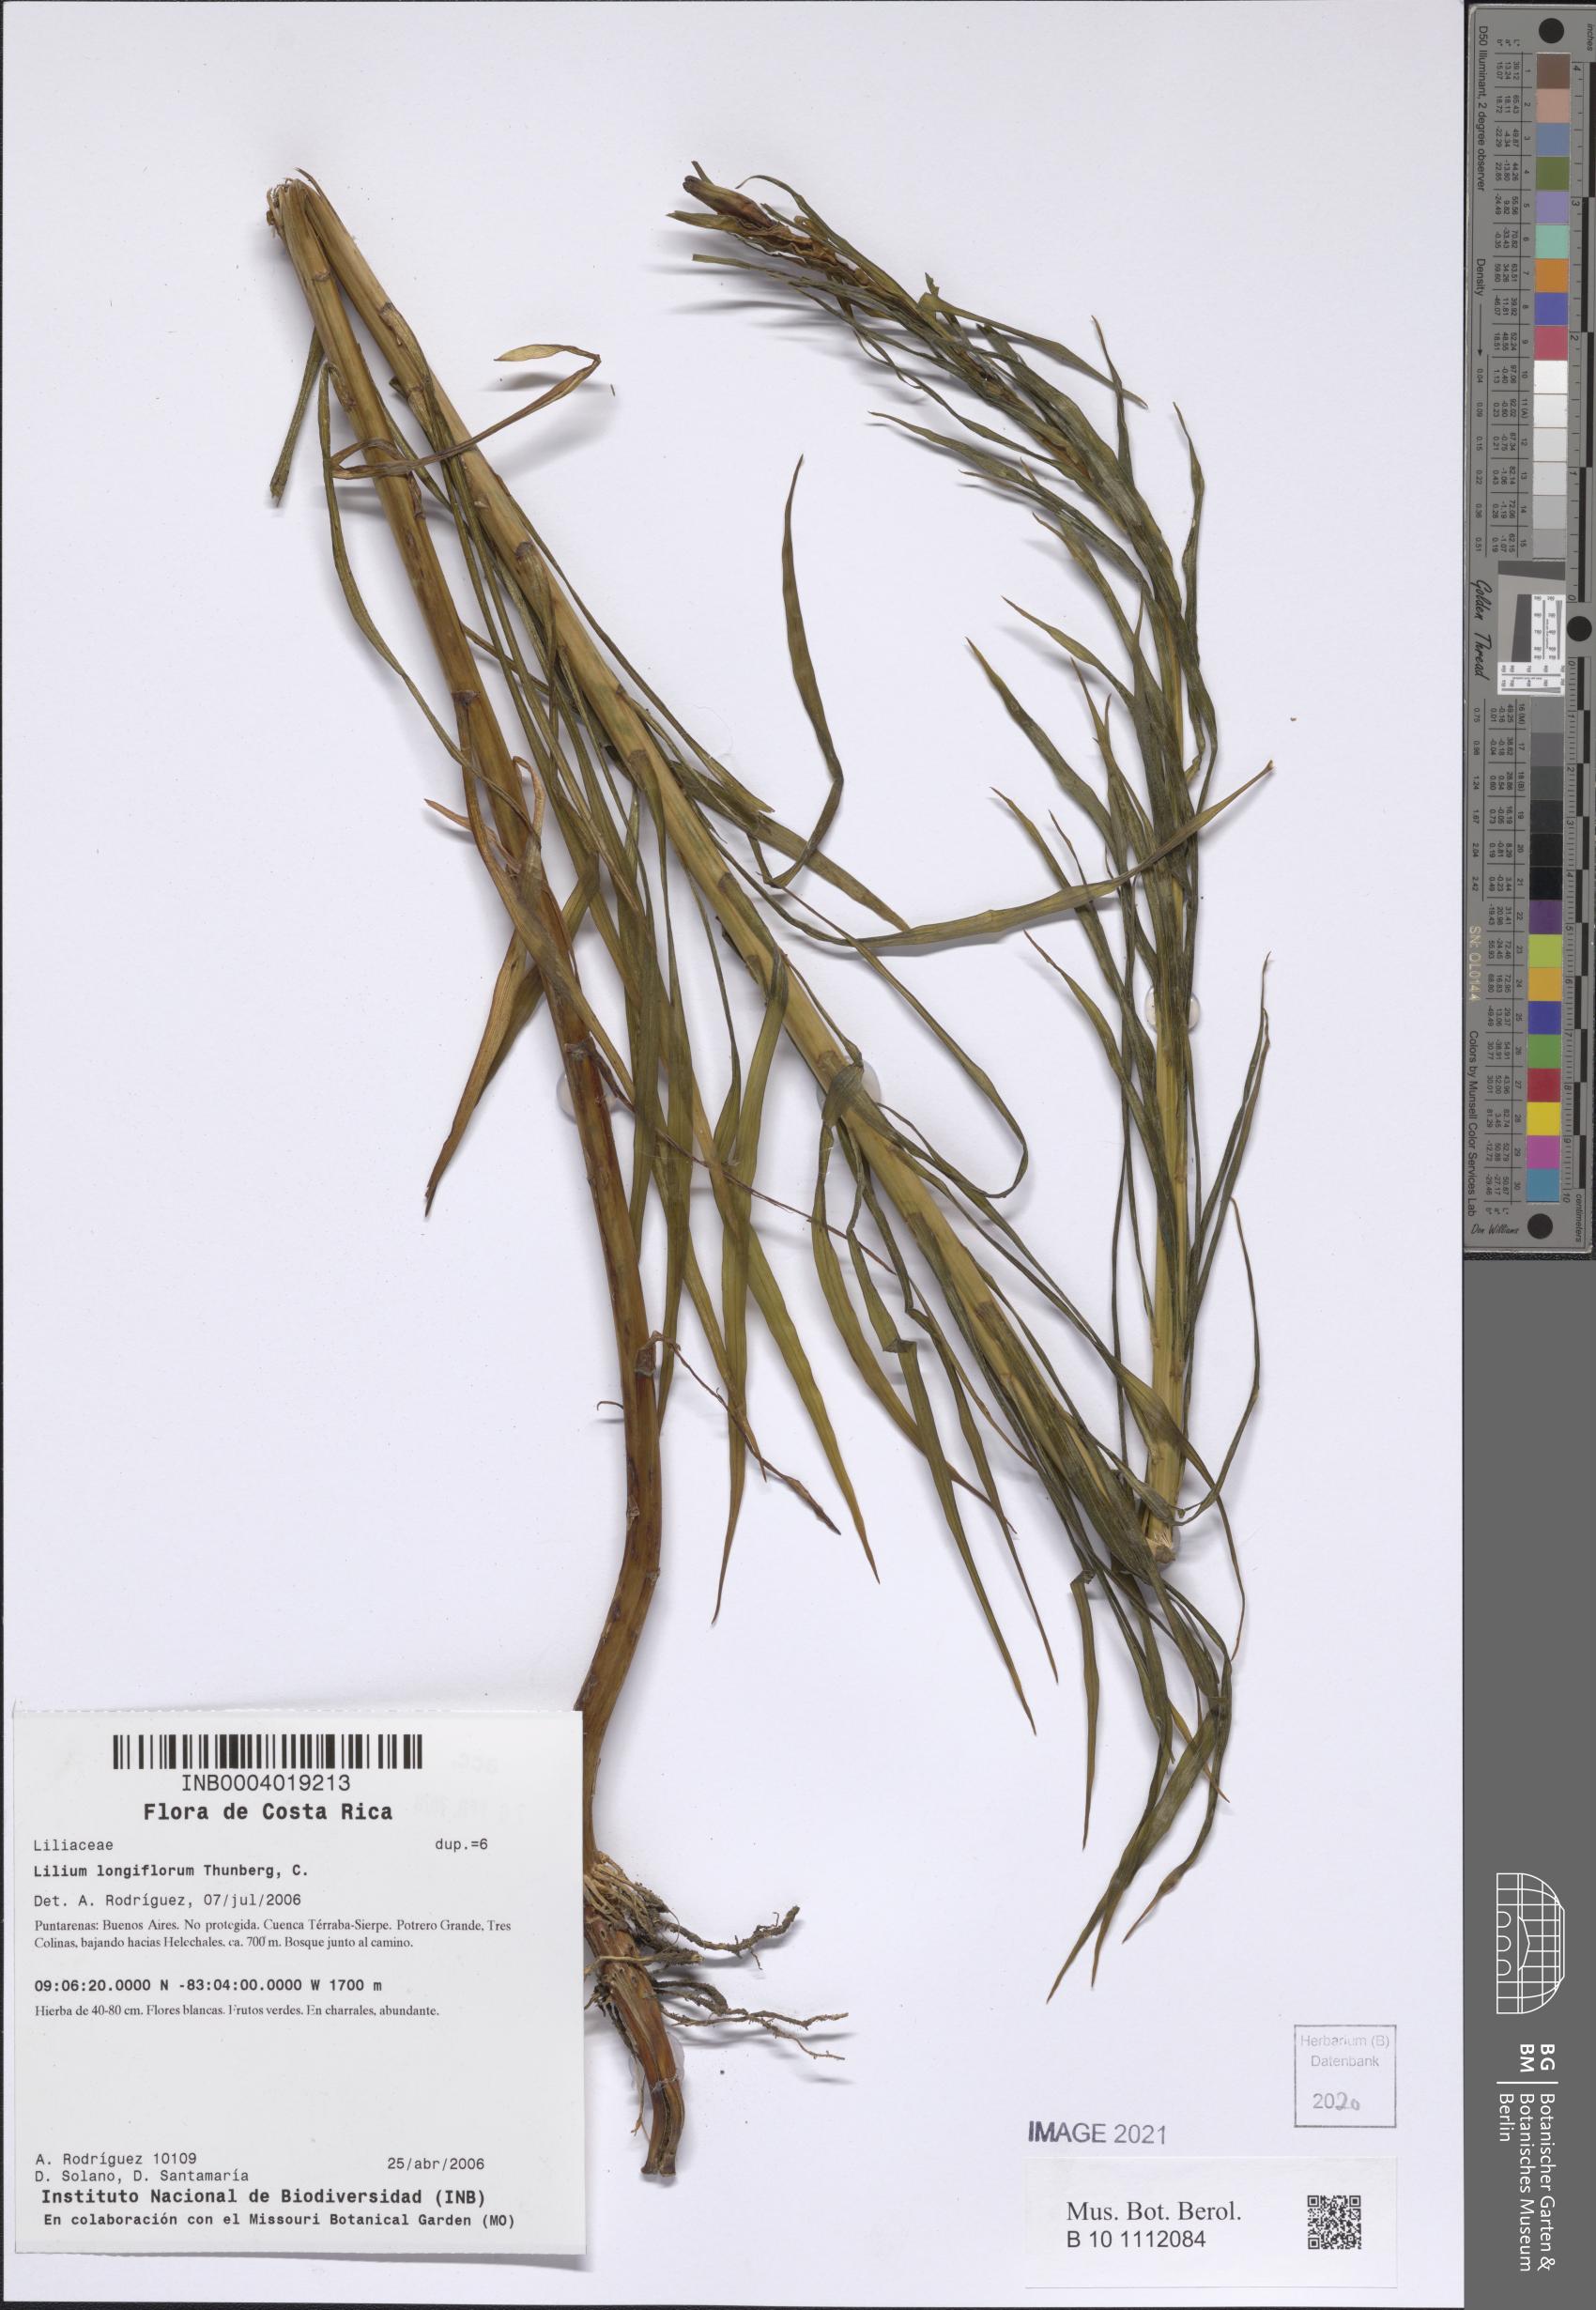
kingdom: Plantae
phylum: Tracheophyta
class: Liliopsida
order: Liliales
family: Liliaceae
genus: Lilium
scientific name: Lilium wallichianum
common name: Wallich's lily
